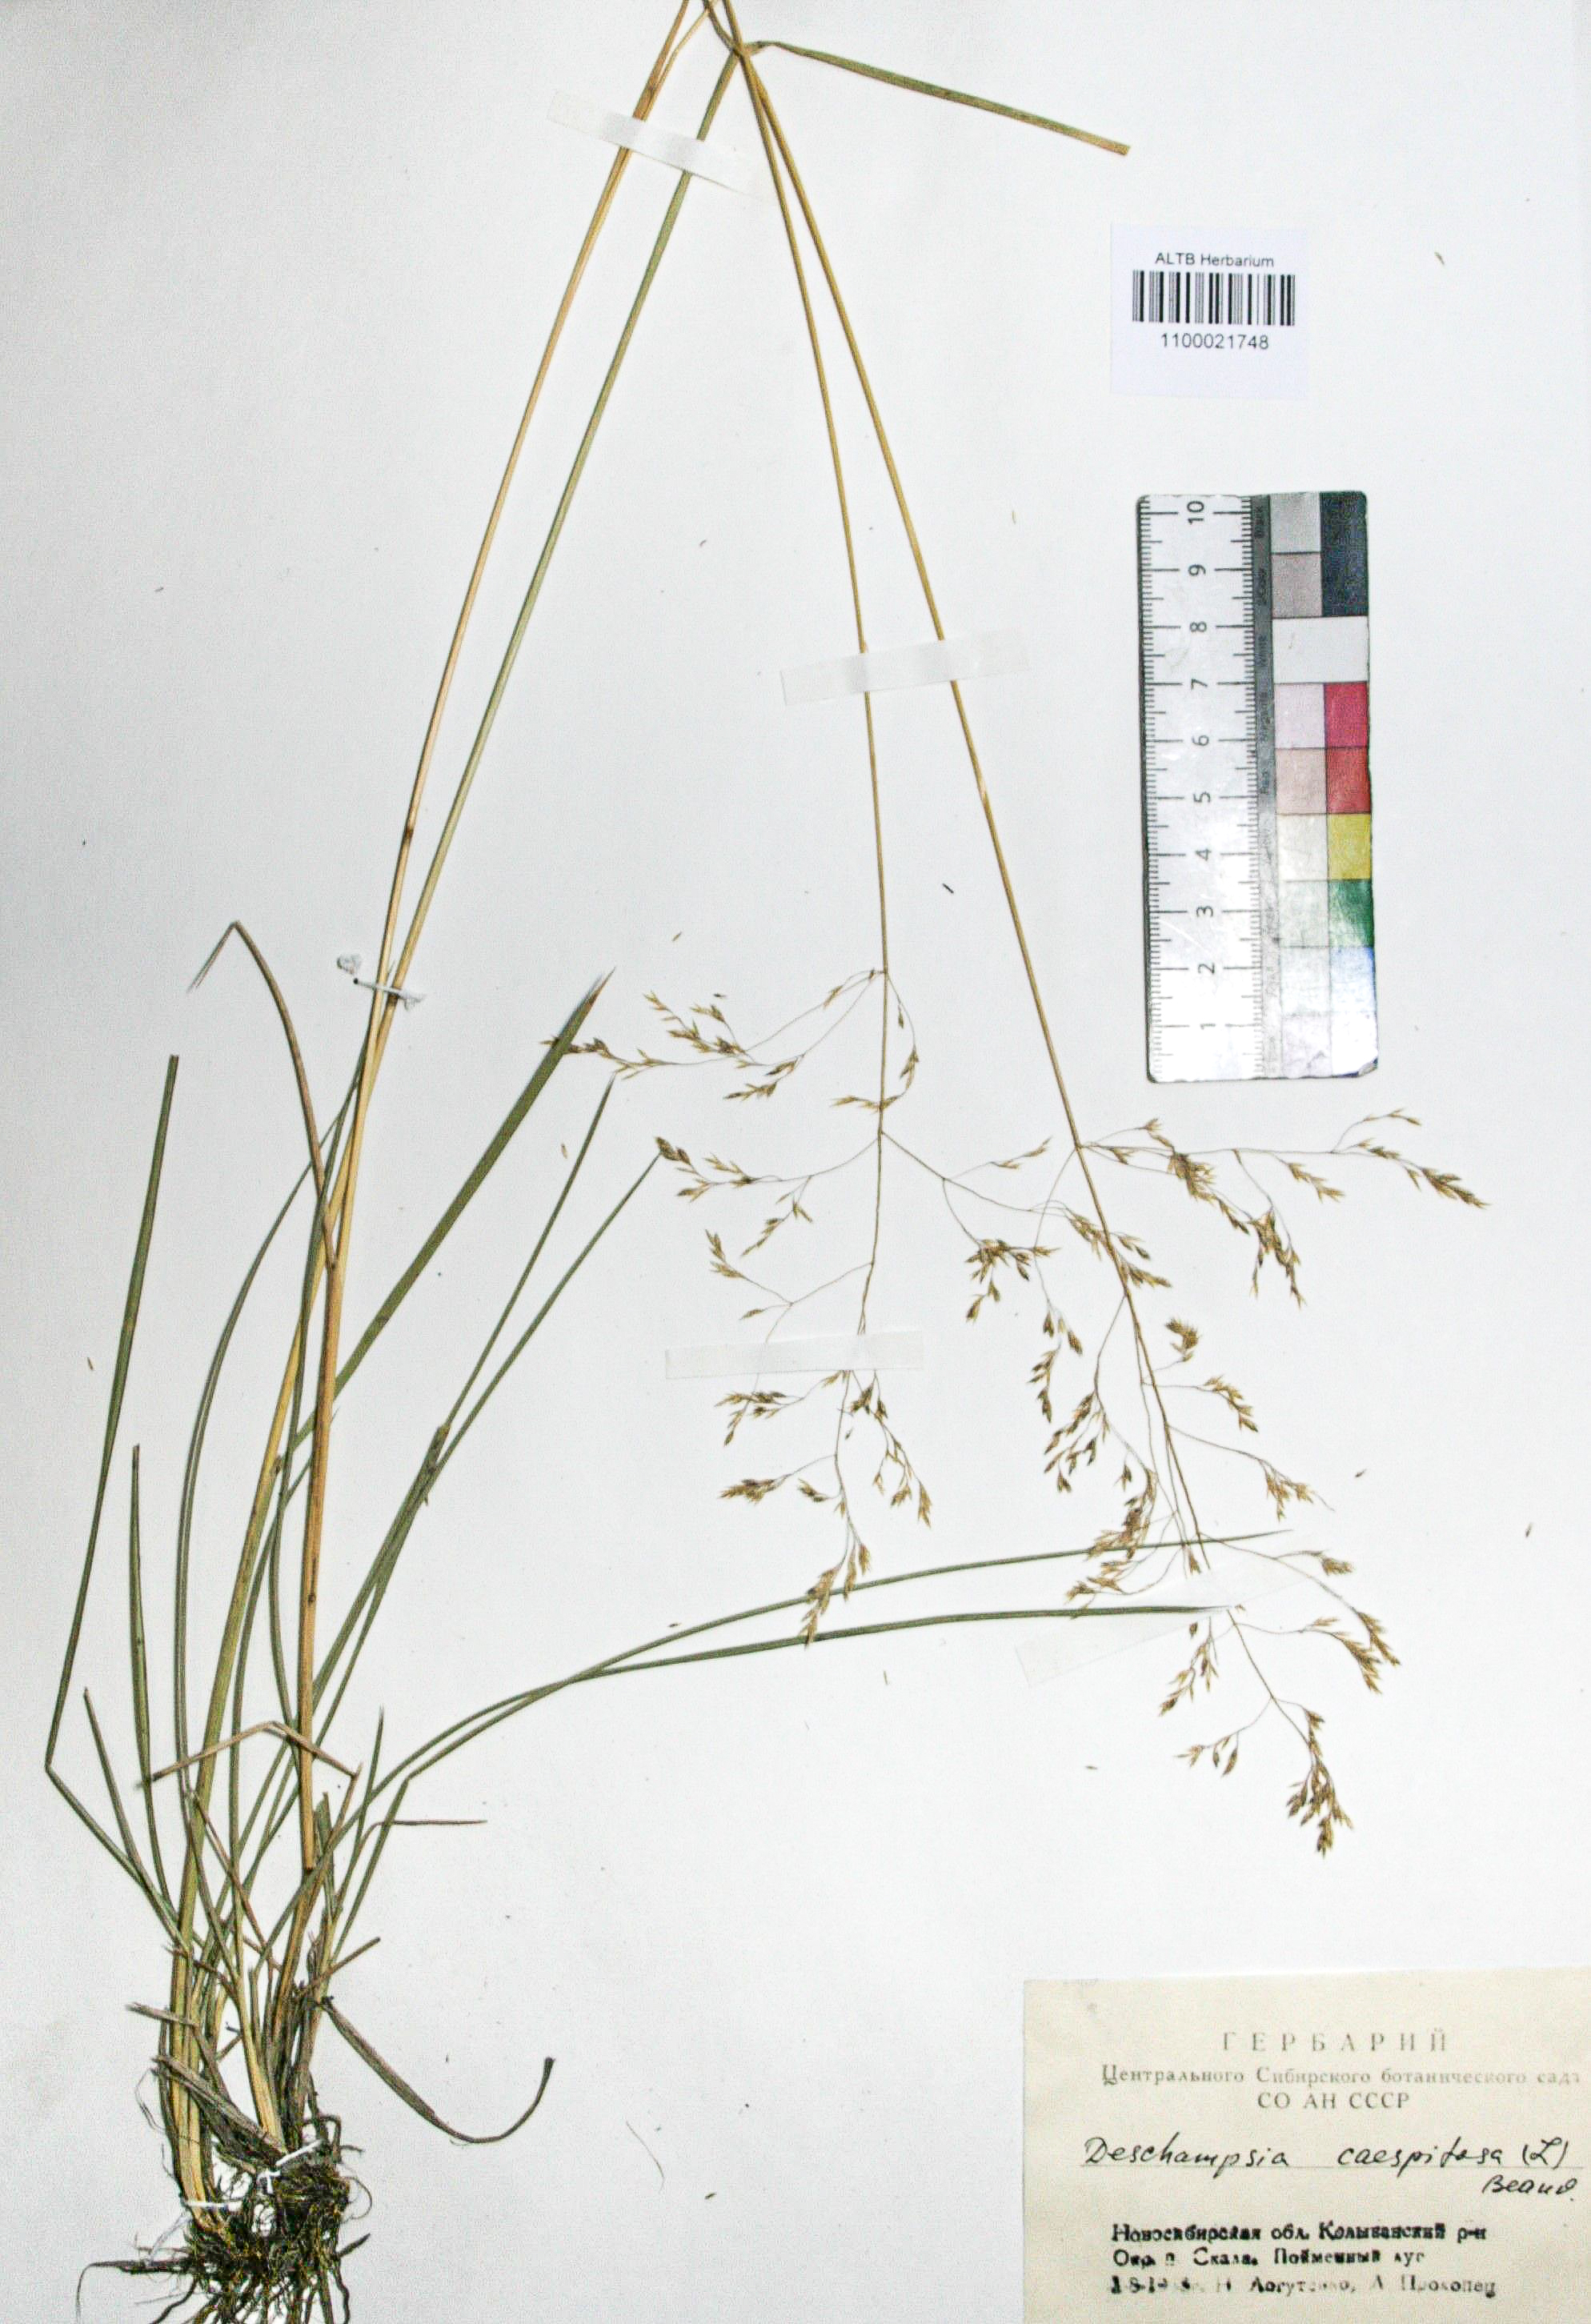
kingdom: Plantae
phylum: Tracheophyta
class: Liliopsida
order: Poales
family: Poaceae
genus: Deschampsia
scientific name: Deschampsia cespitosa
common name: Tufted hair-grass
